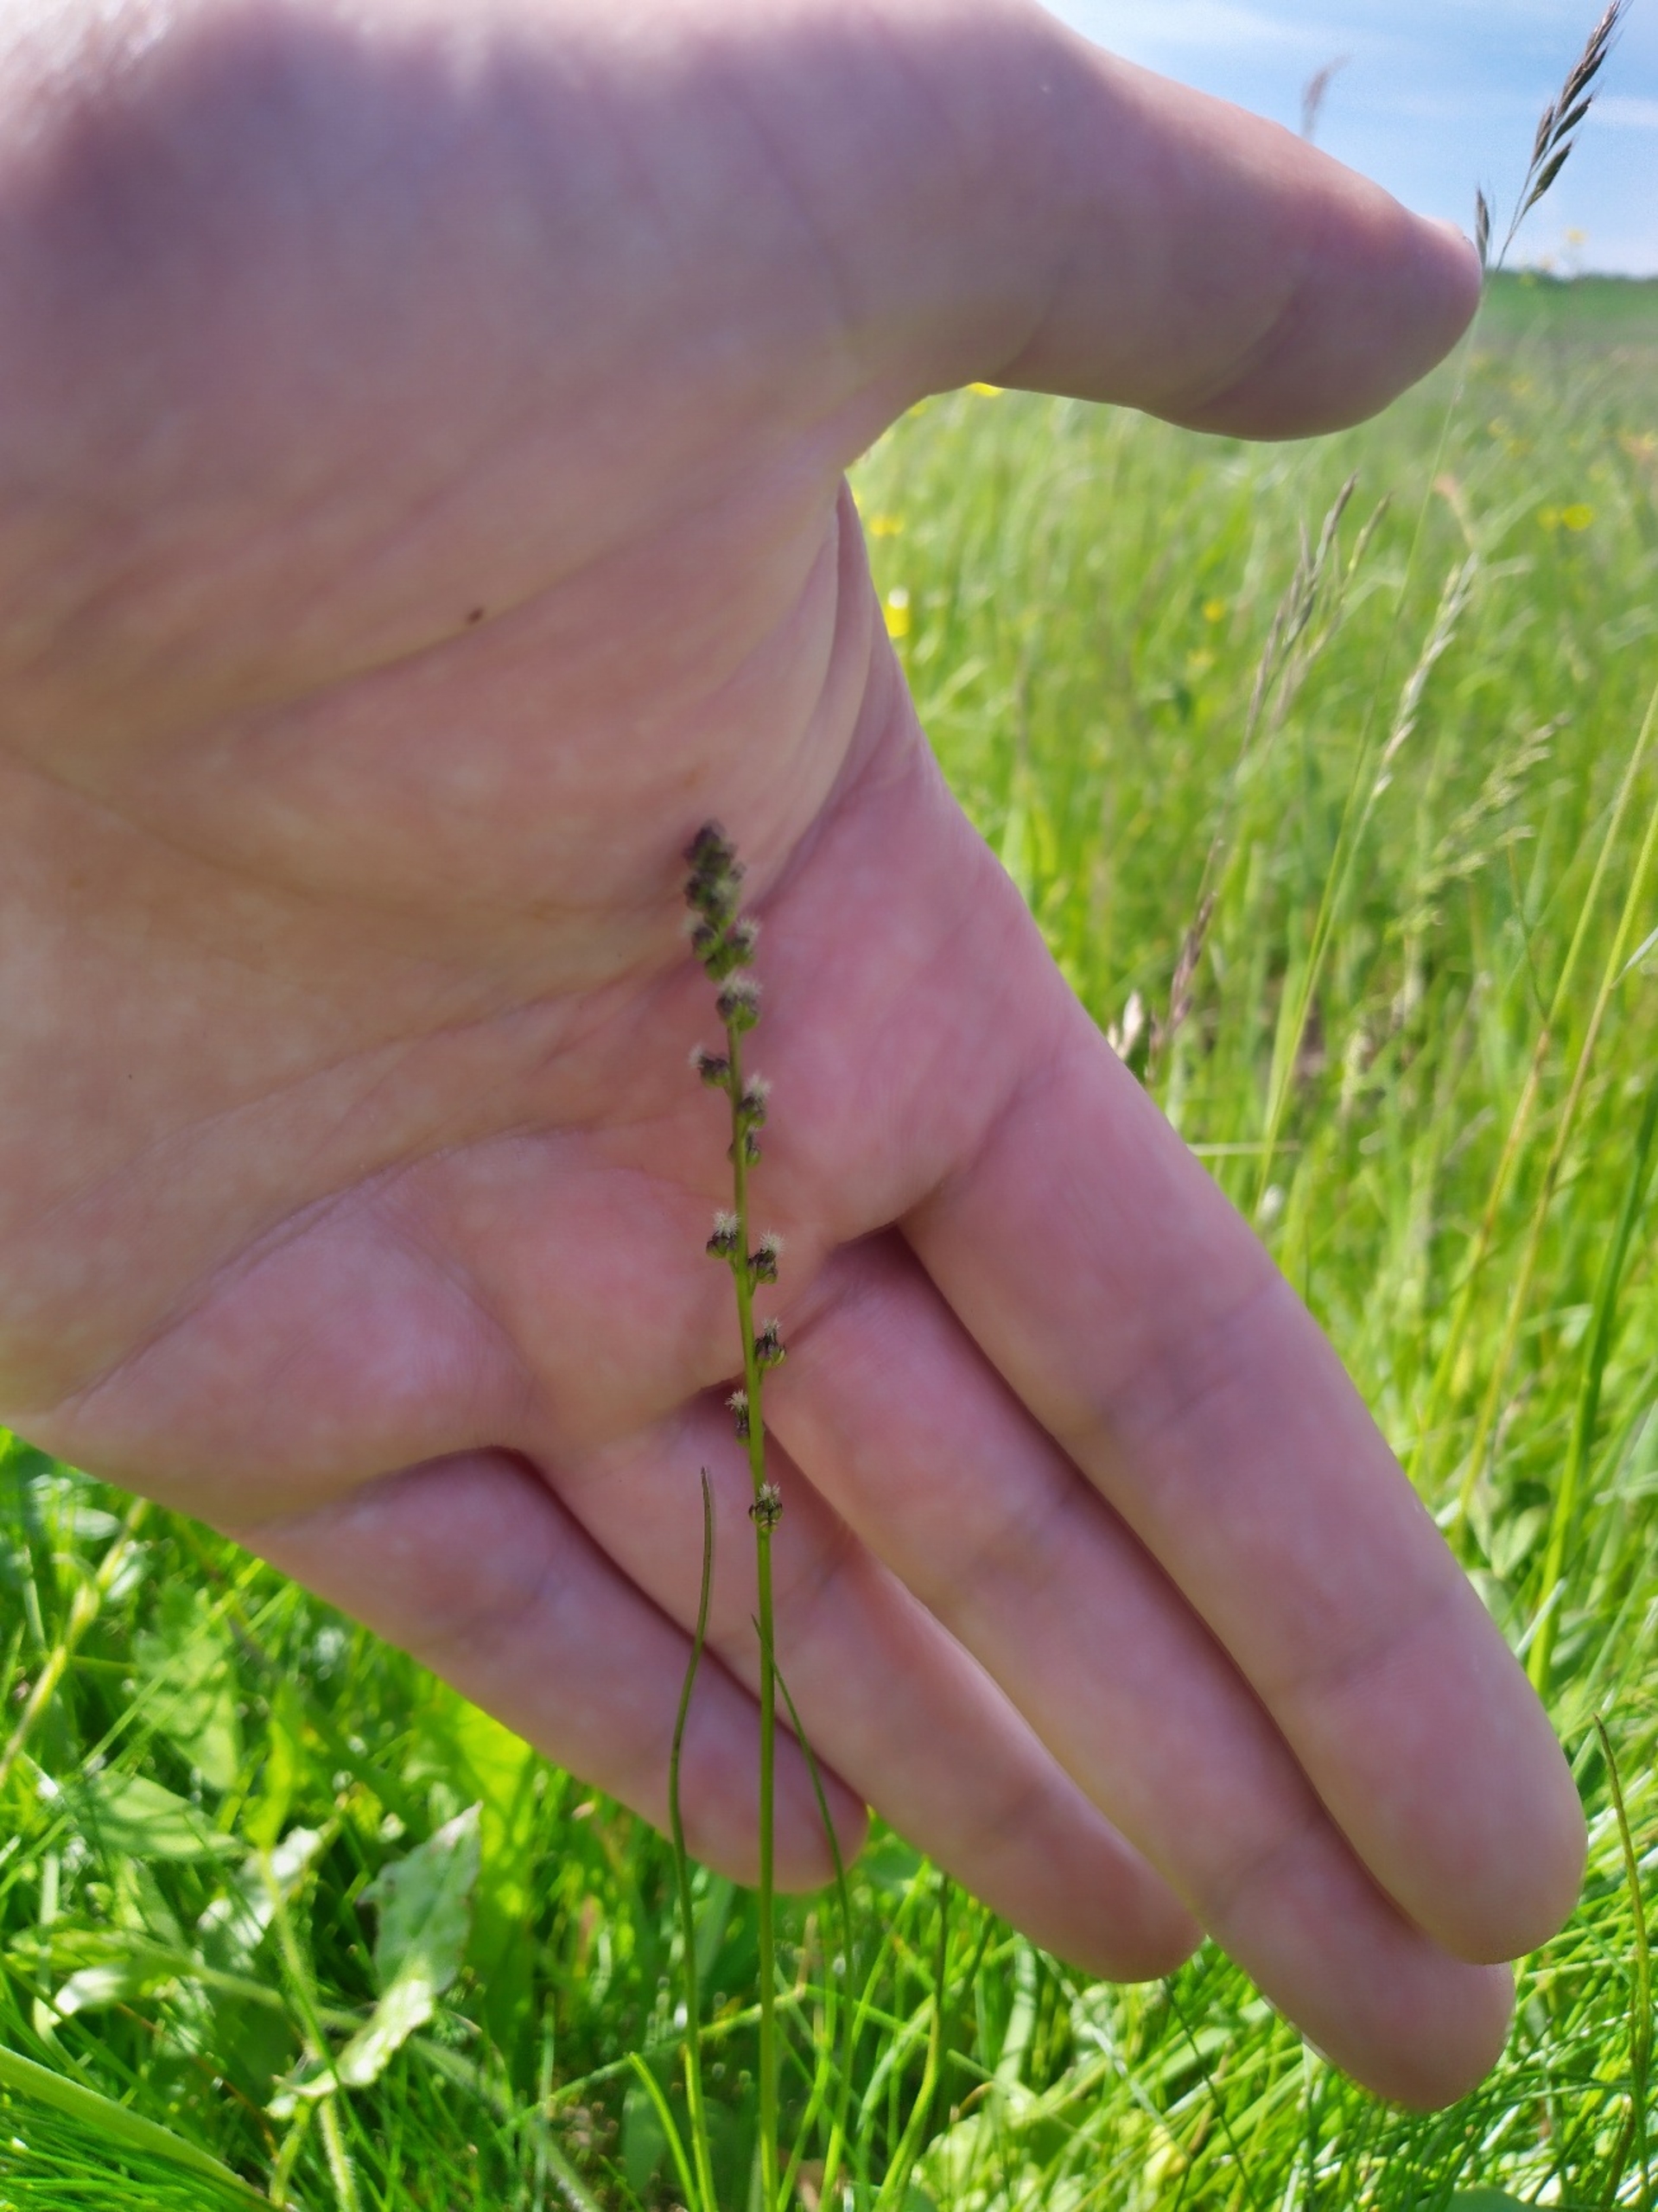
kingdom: Plantae
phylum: Tracheophyta
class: Liliopsida
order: Alismatales
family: Juncaginaceae
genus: Triglochin
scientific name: Triglochin palustris
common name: Kær-trehage
